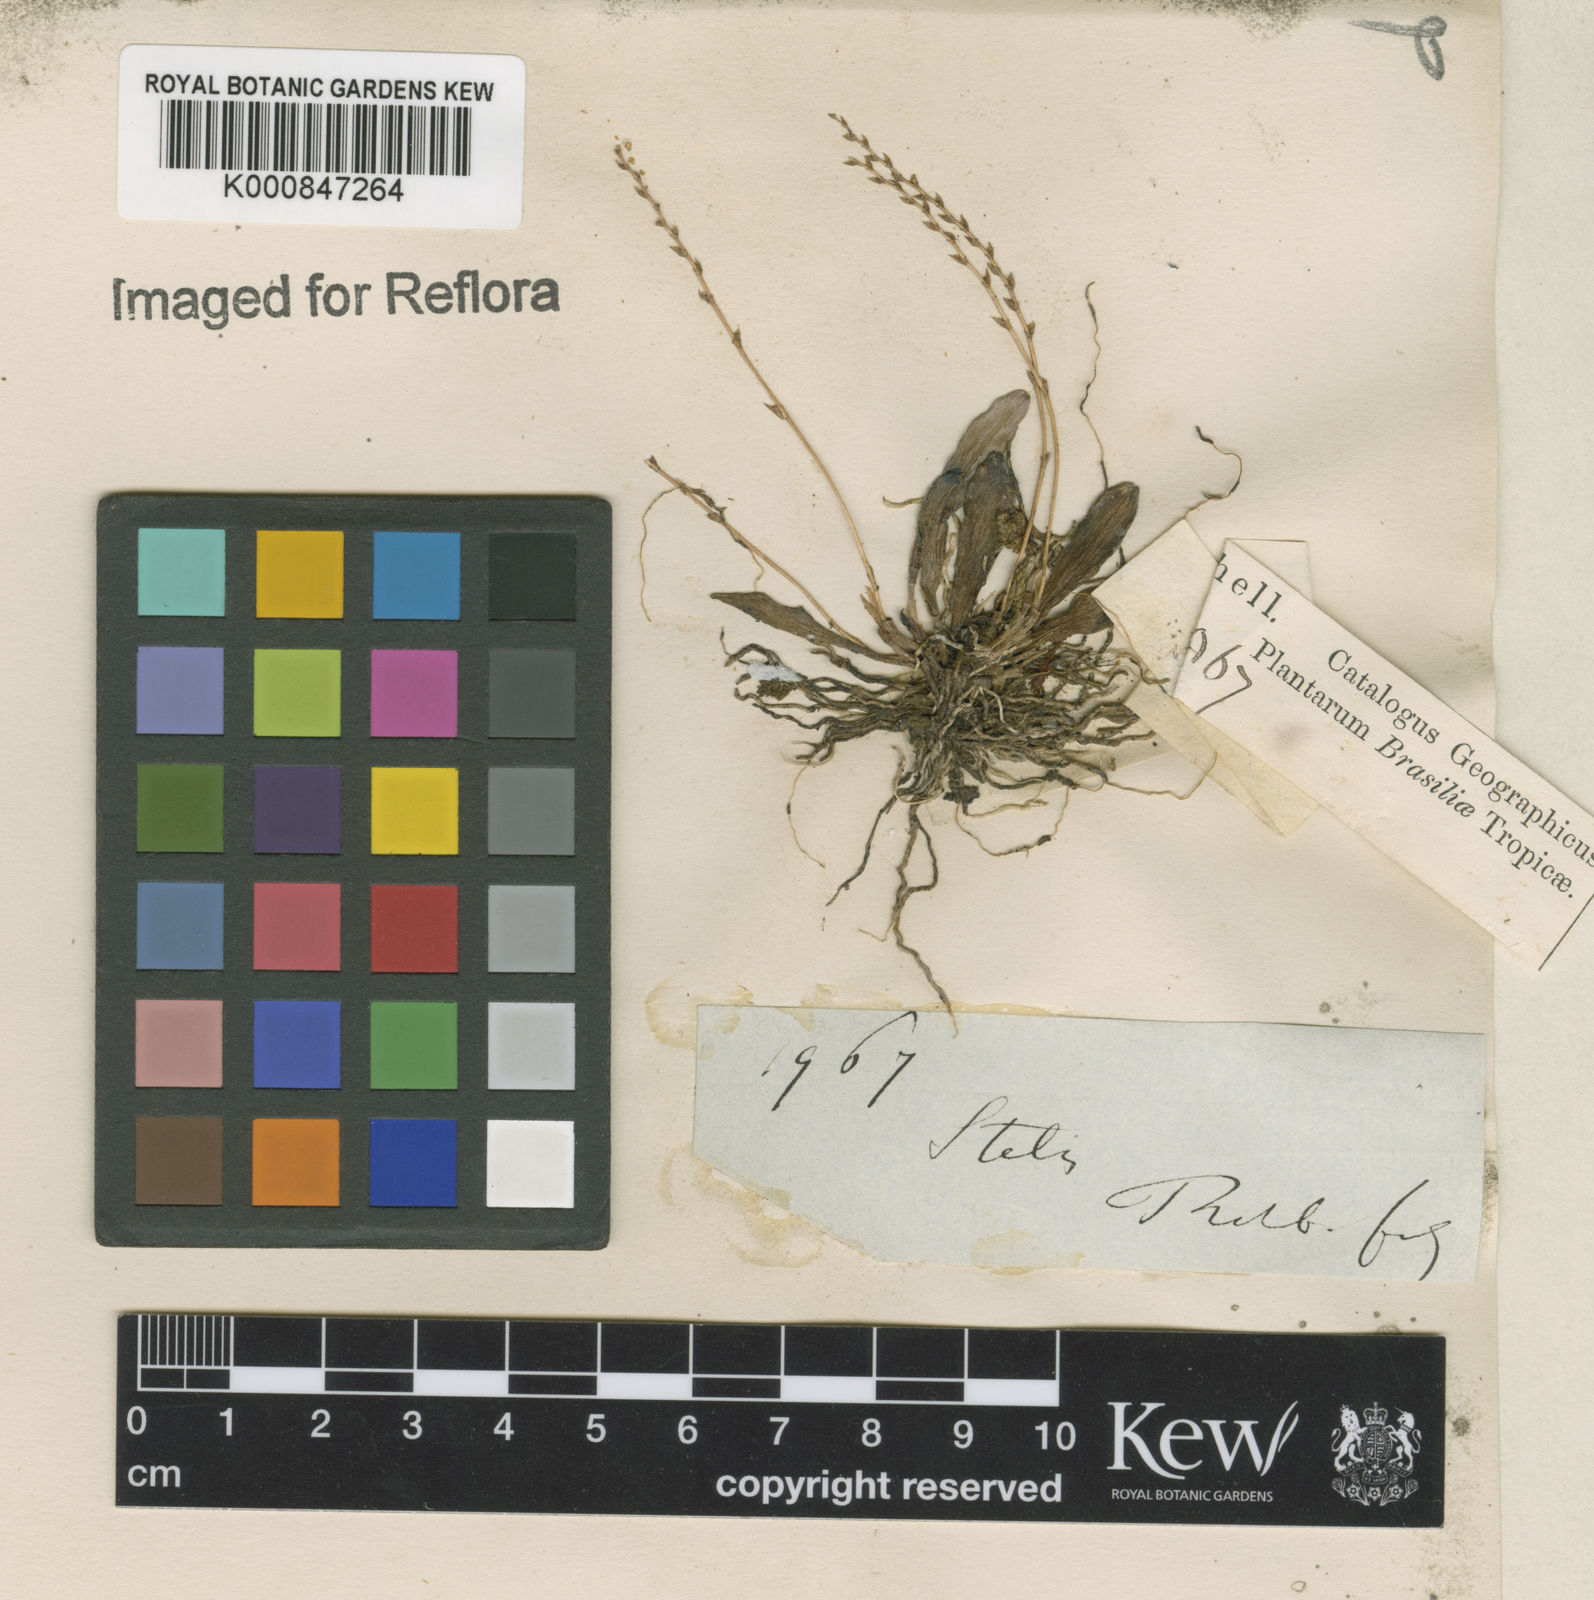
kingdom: Plantae
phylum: Tracheophyta
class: Liliopsida
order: Asparagales
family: Orchidaceae
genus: Stelis
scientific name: Stelis
